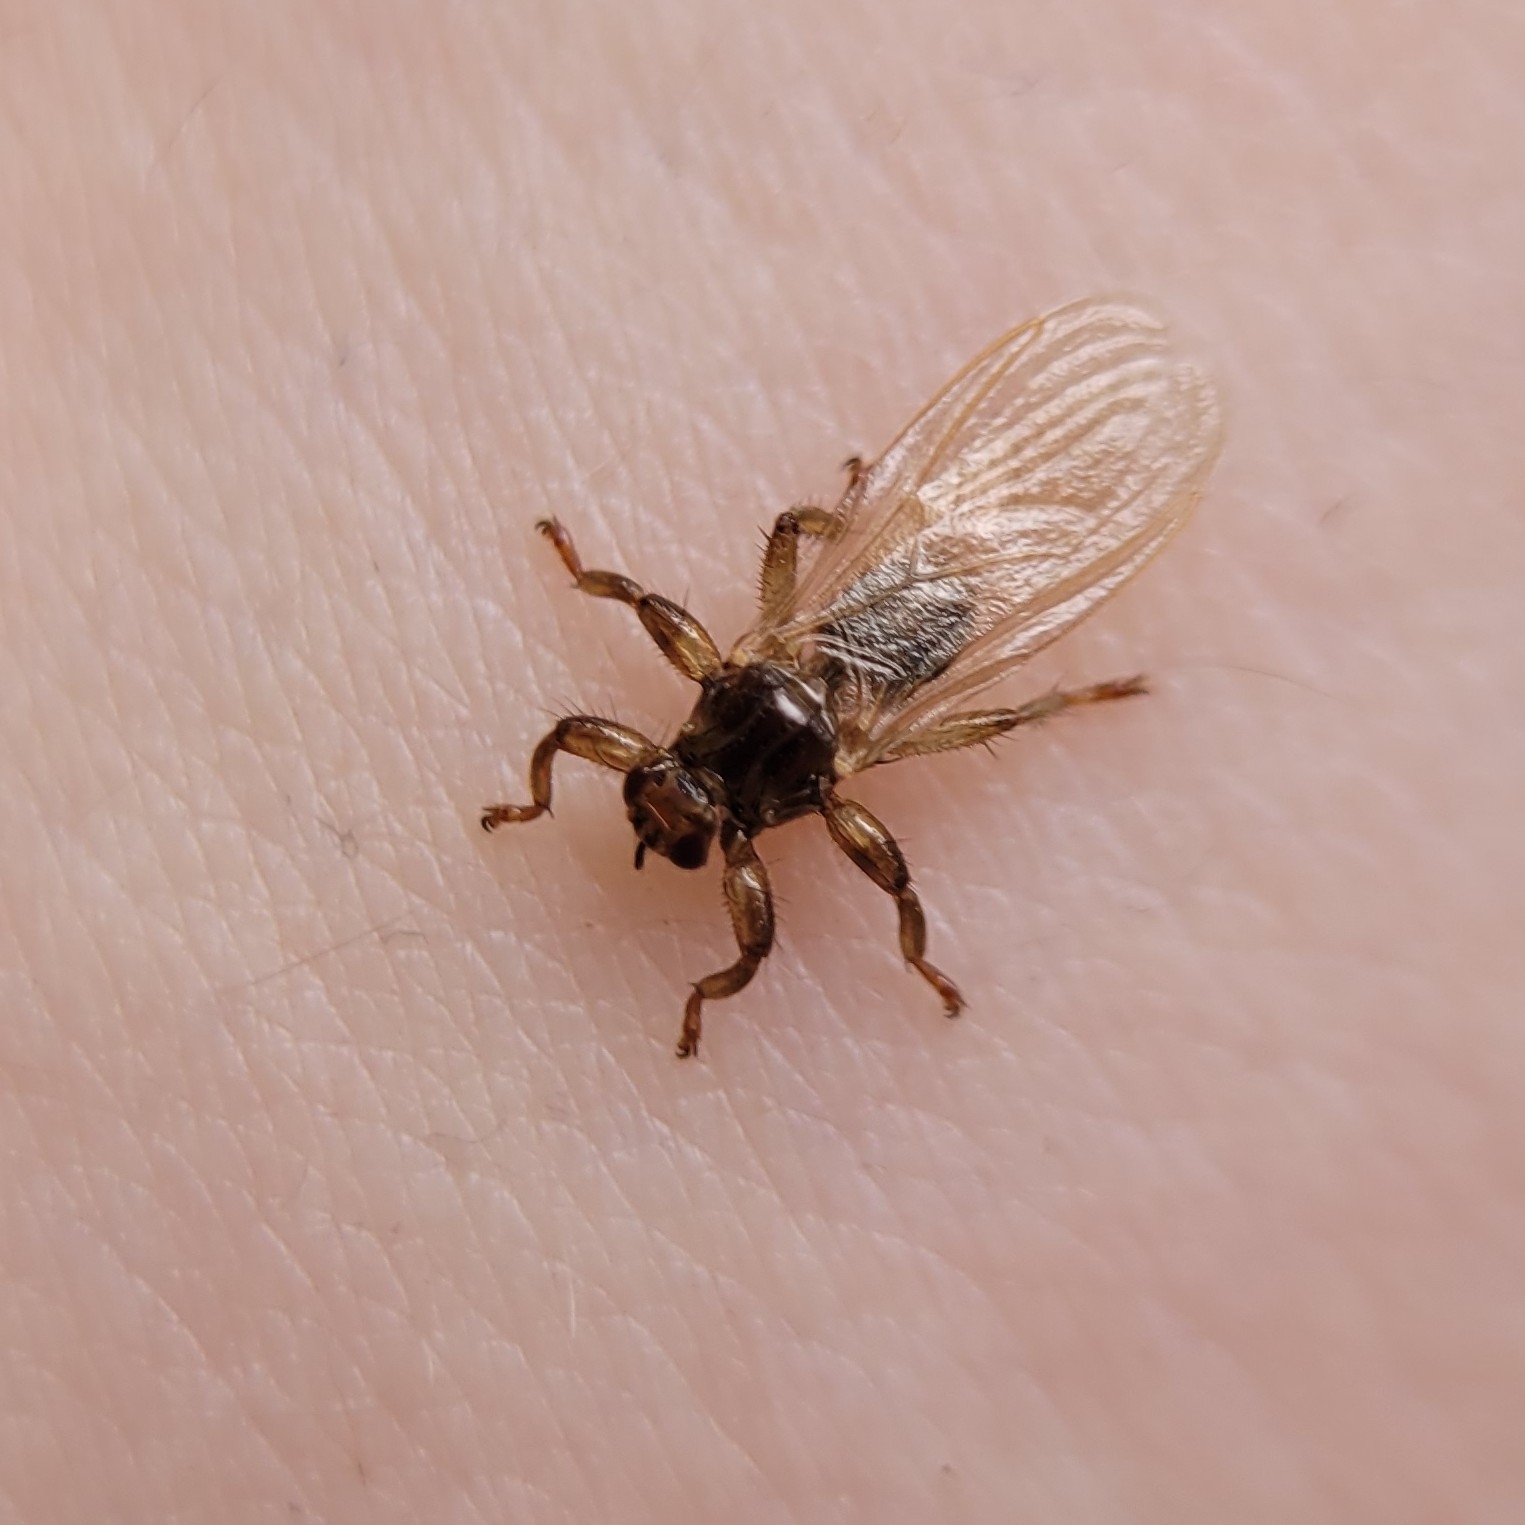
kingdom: Animalia
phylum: Arthropoda
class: Insecta
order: Diptera
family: Hippoboscidae
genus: Lipoptena
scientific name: Lipoptena cervi
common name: Hjortelus
